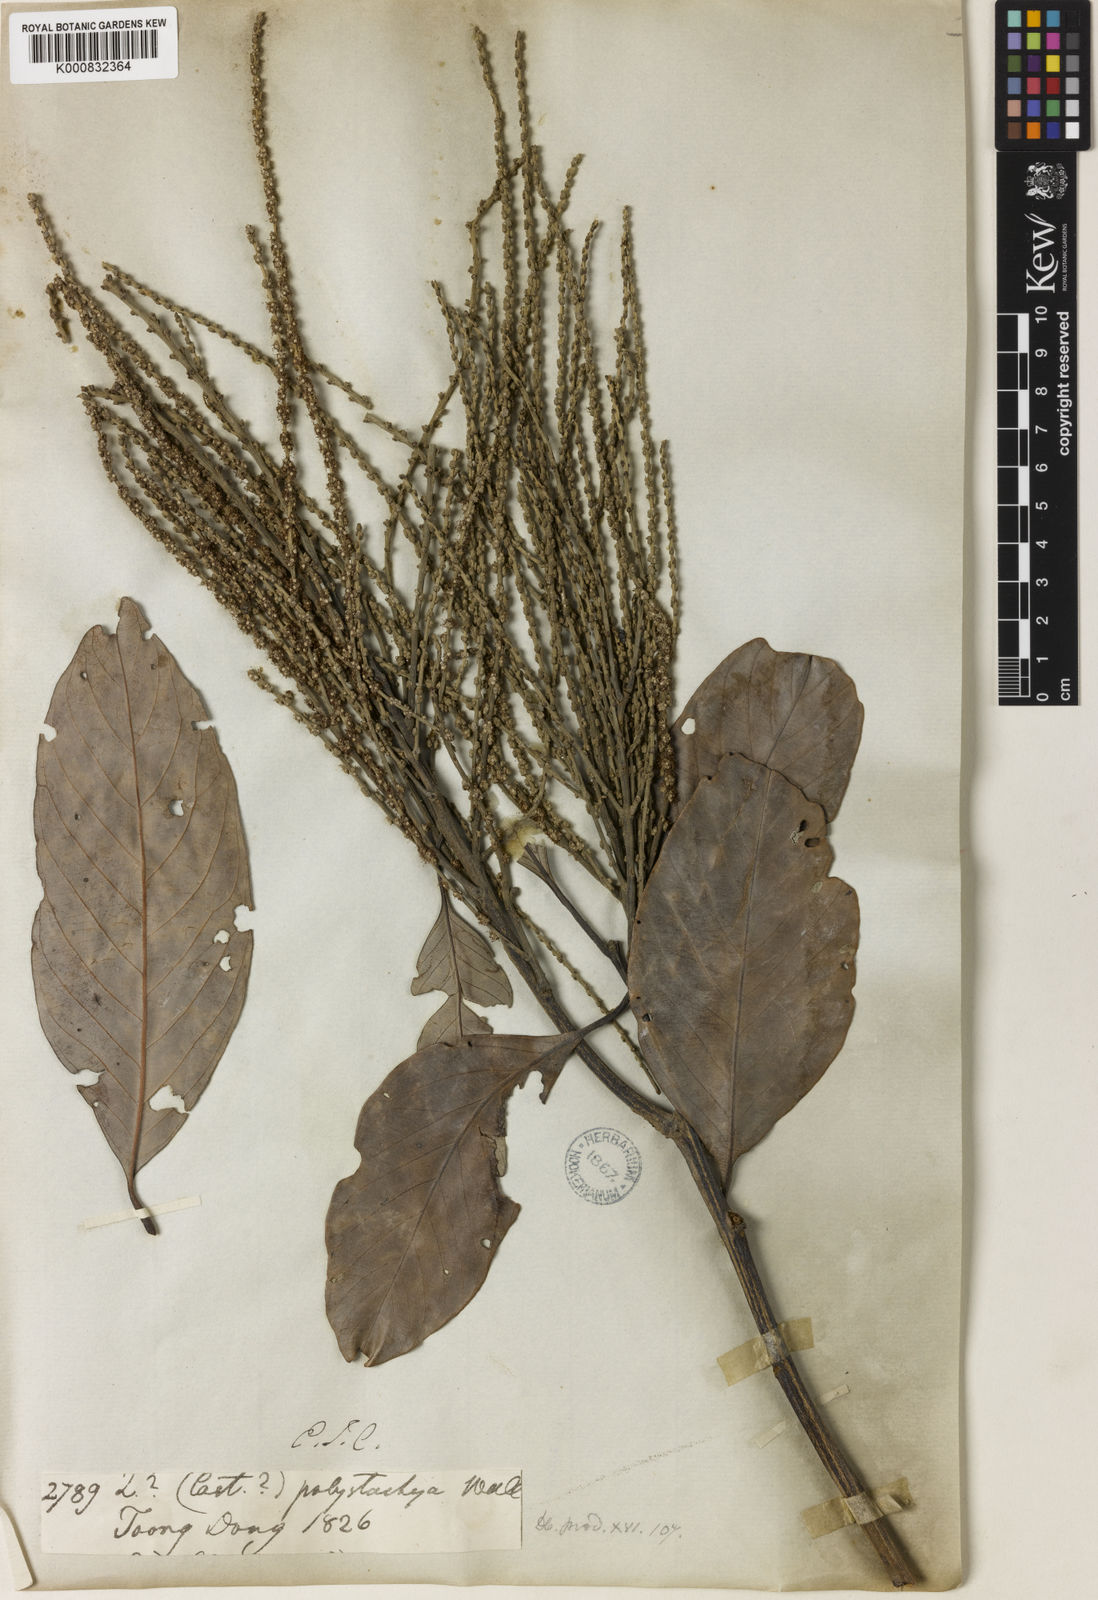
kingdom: Plantae
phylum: Tracheophyta
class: Magnoliopsida
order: Fagales
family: Fagaceae
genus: Lithocarpus
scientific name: Lithocarpus polystachyus
